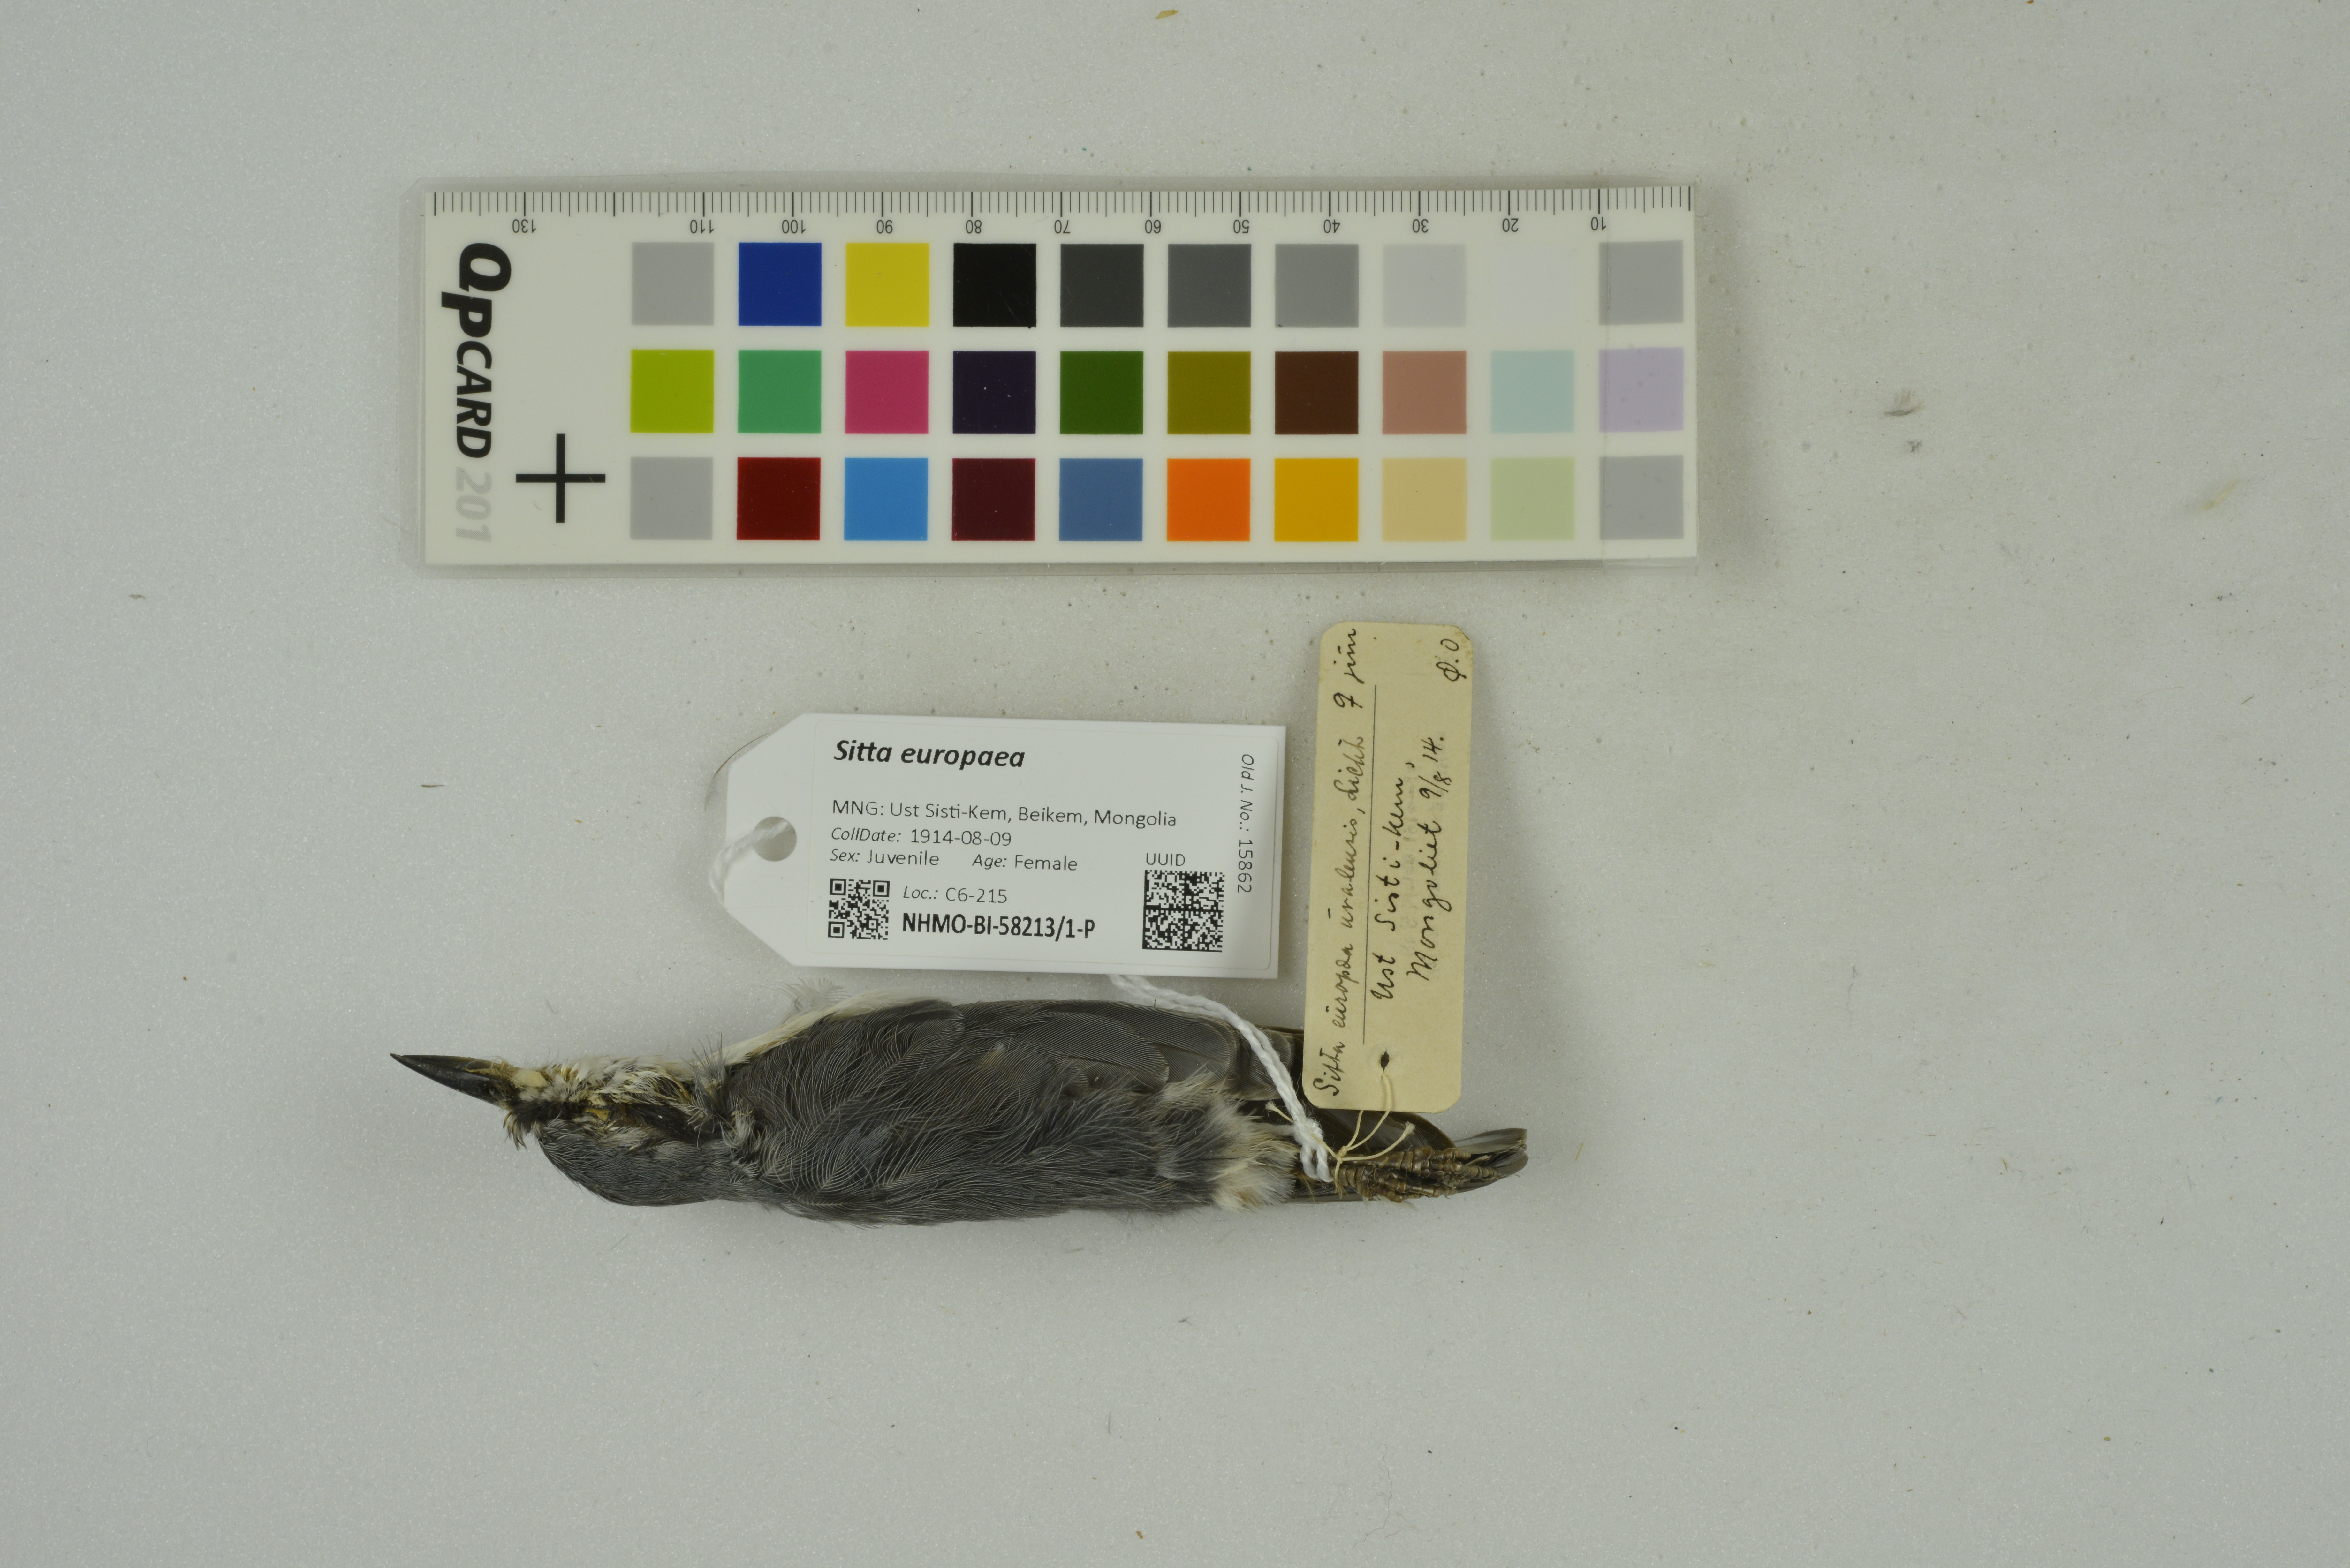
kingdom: Animalia
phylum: Chordata
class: Aves
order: Passeriformes
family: Sittidae
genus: Sitta
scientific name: Sitta europaea
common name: Eurasian nuthatch
